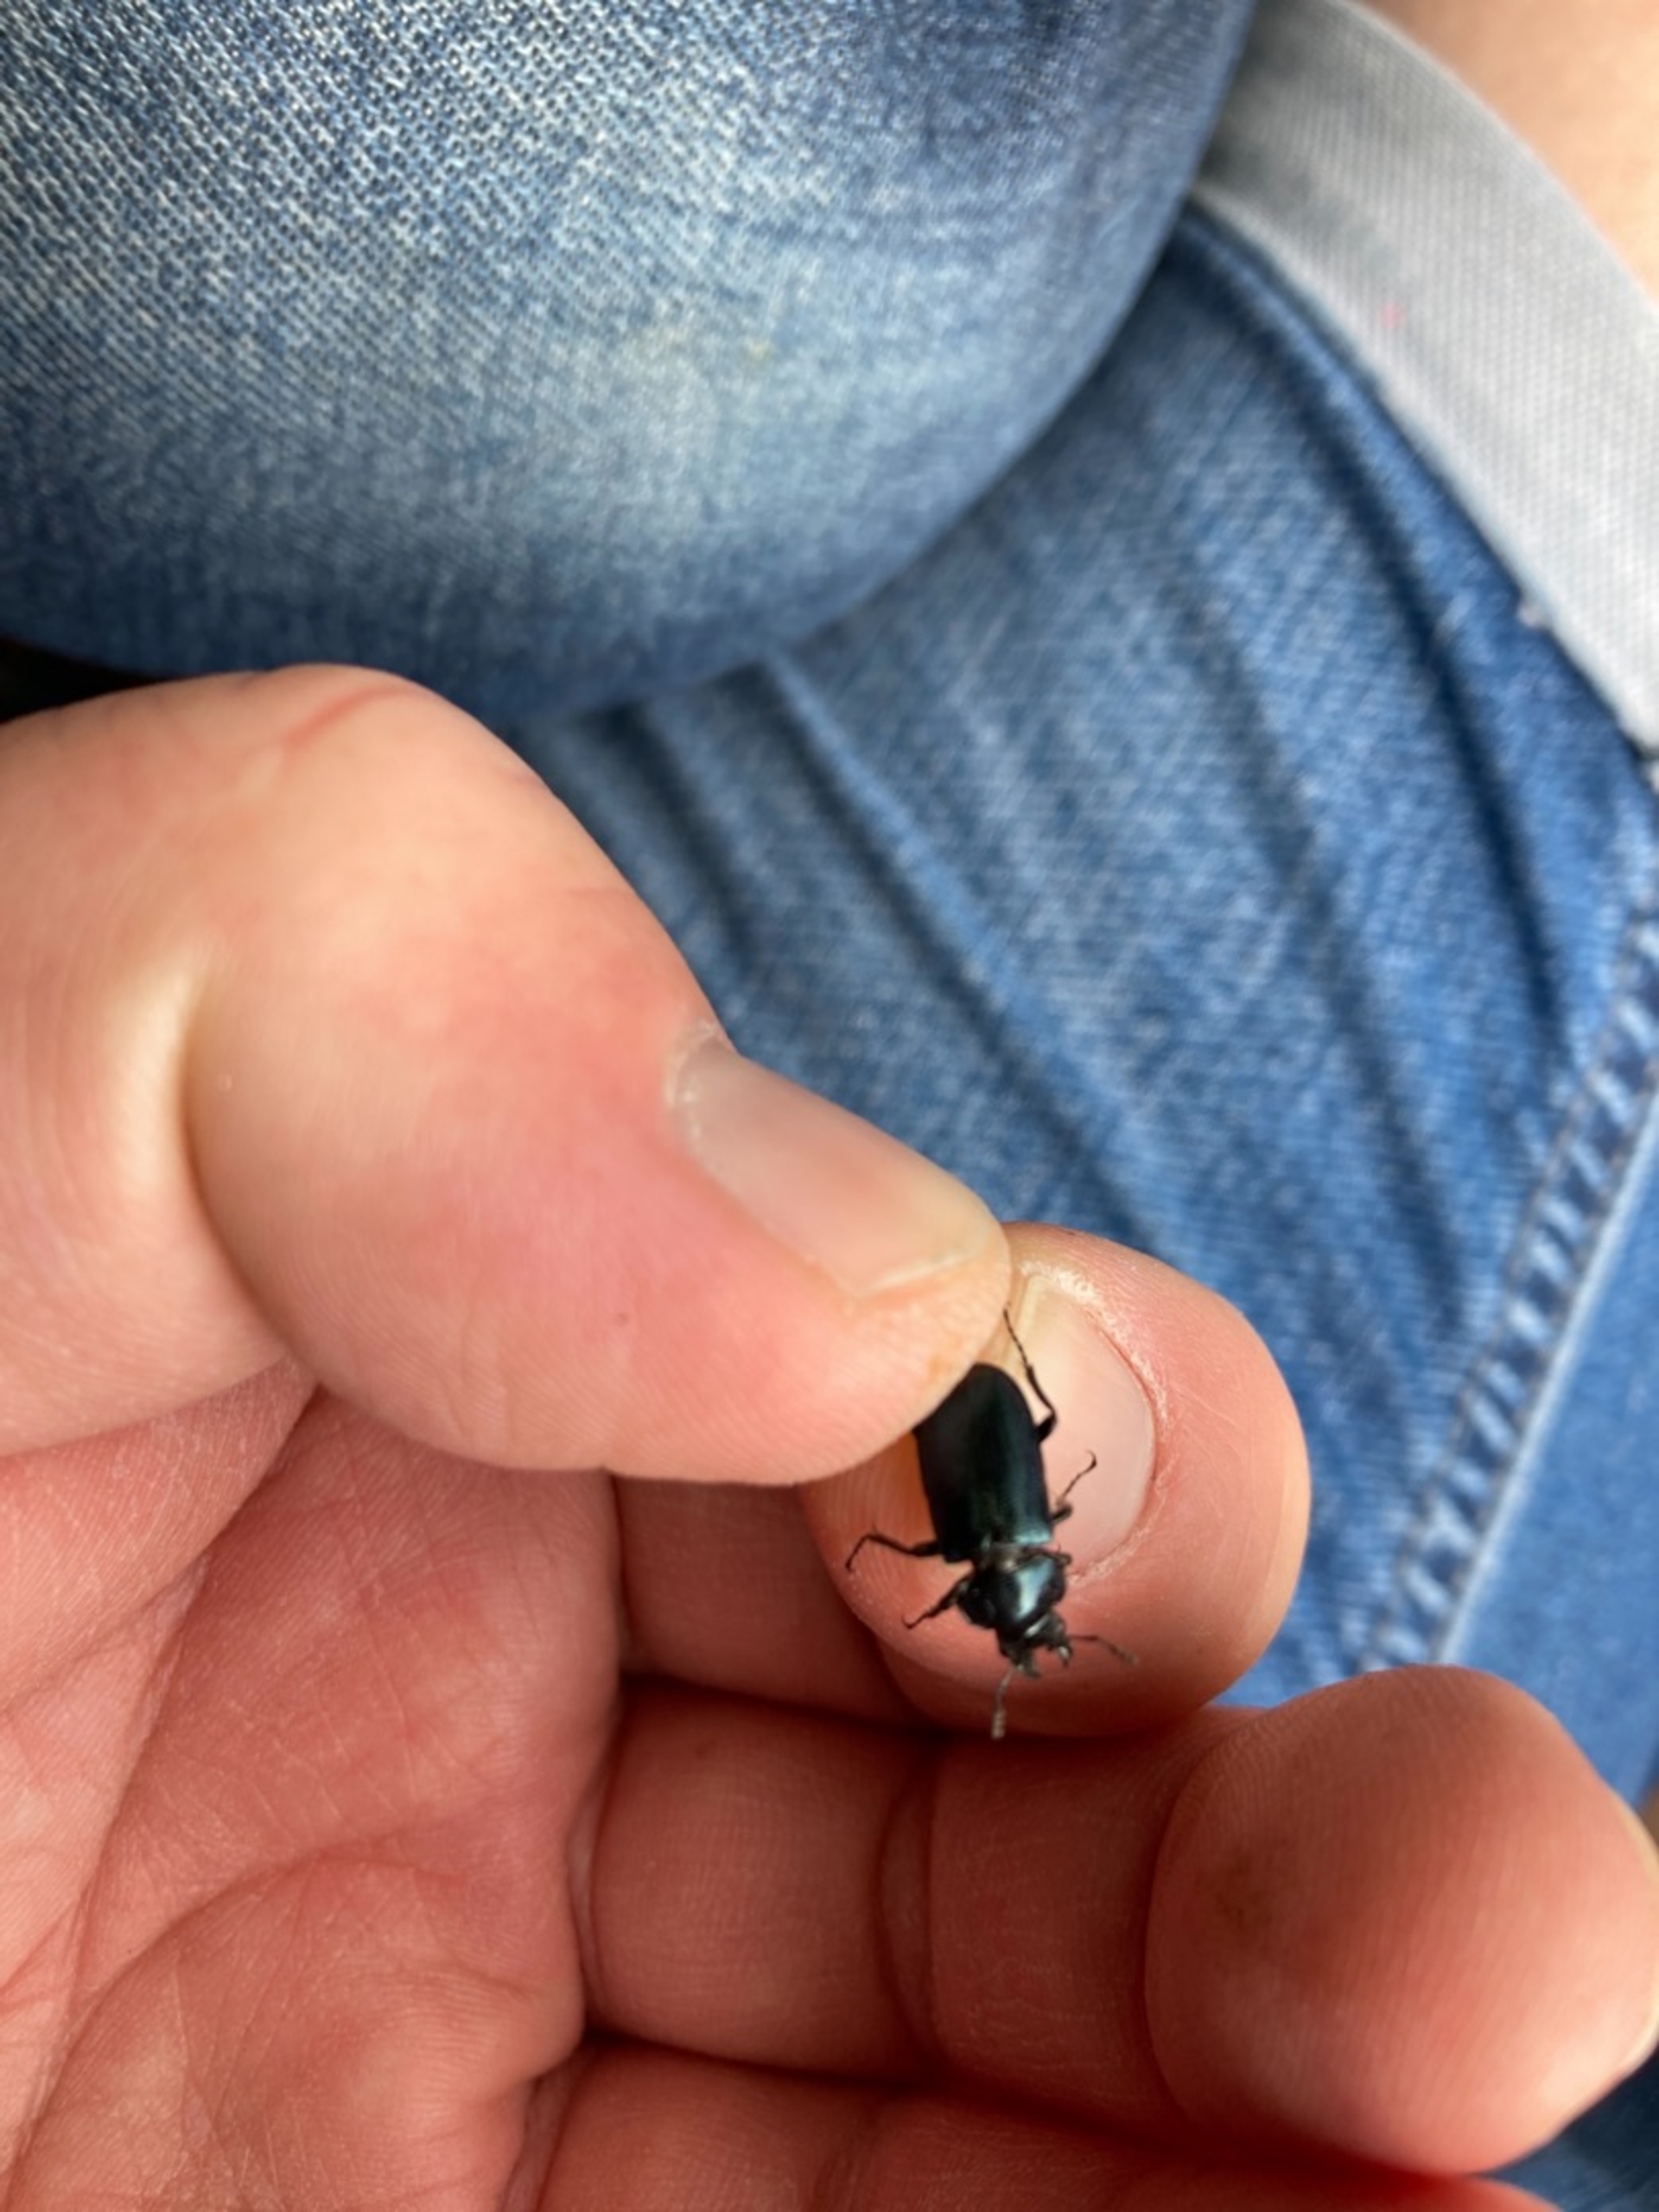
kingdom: Animalia
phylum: Arthropoda
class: Insecta
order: Coleoptera
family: Lucanidae
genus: Platycerus
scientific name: Platycerus caraboides
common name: Blåhjort
